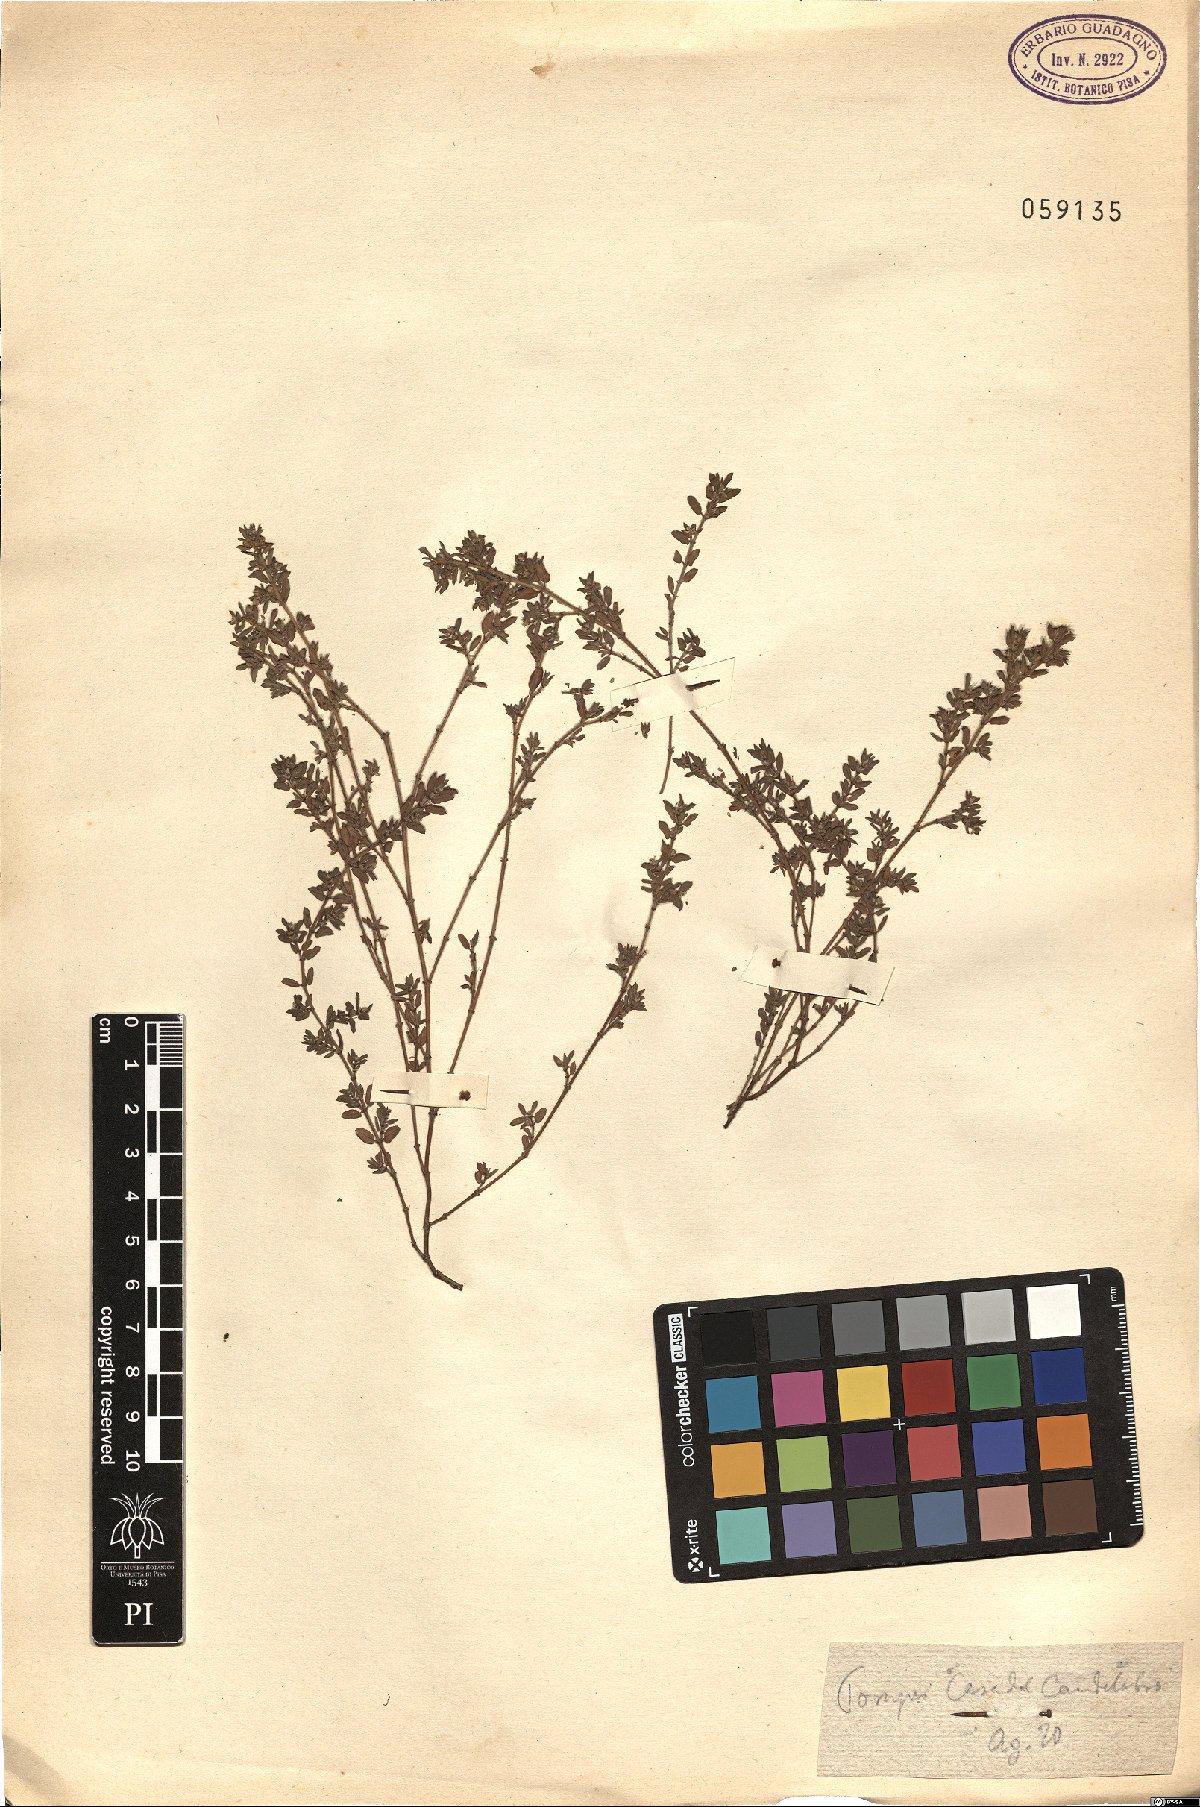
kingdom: Plantae
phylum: Tracheophyta
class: Magnoliopsida
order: Malpighiales
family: Euphorbiaceae
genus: Euphorbia
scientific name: Euphorbia
